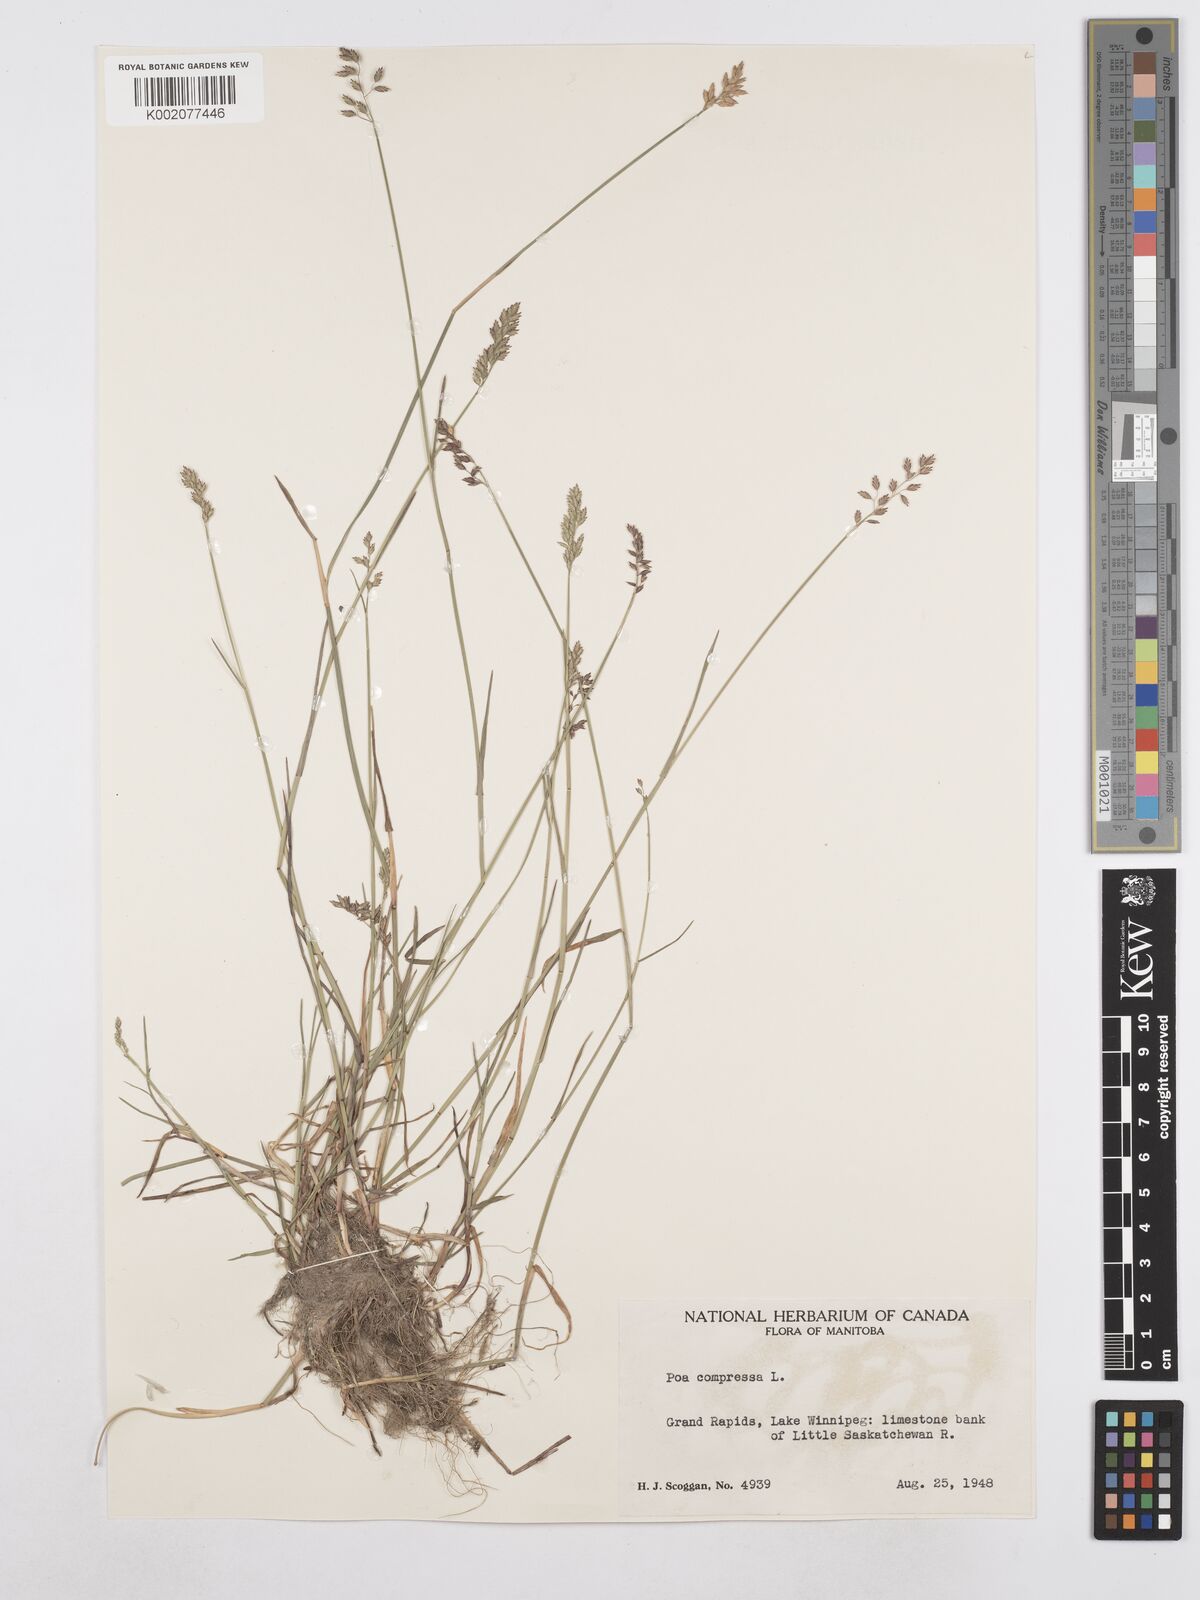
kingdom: Plantae
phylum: Tracheophyta
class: Liliopsida
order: Poales
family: Poaceae
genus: Poa
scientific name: Poa compressa
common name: Canada bluegrass
